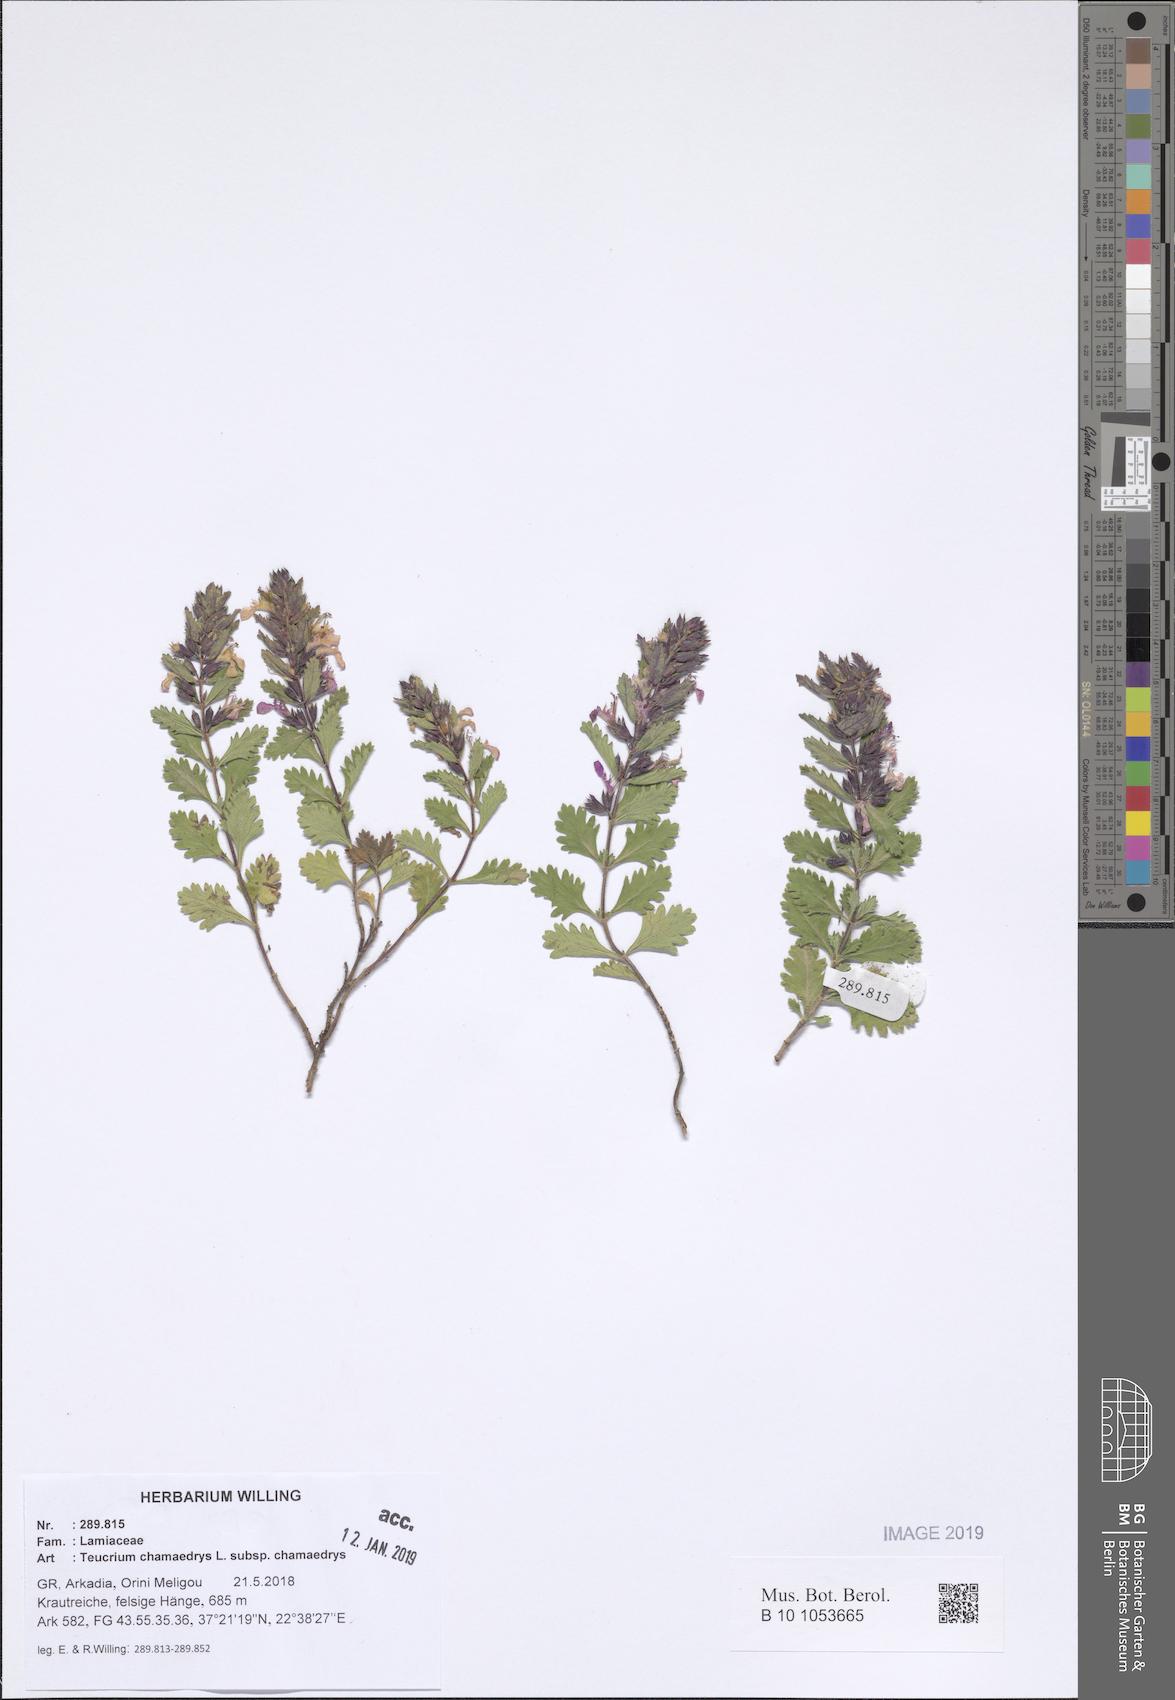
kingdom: Plantae
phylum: Tracheophyta
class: Magnoliopsida
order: Lamiales
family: Lamiaceae
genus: Teucrium
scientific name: Teucrium chamaedrys
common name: Wall germander
